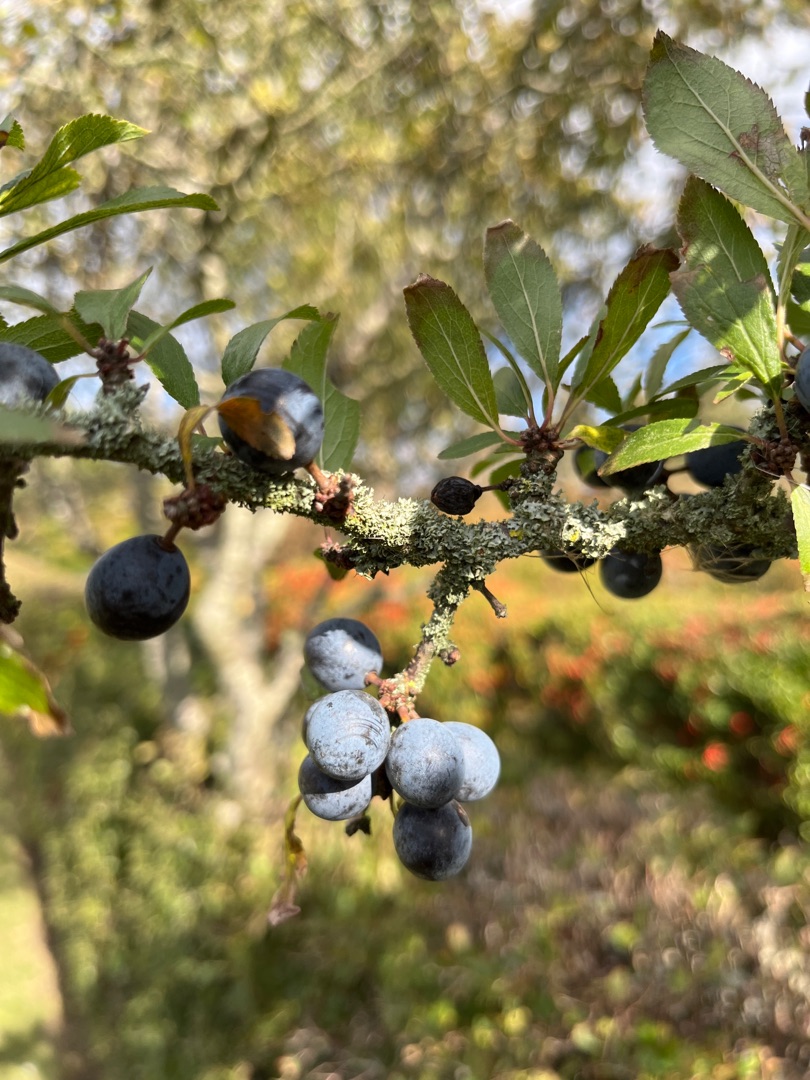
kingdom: Plantae
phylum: Tracheophyta
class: Magnoliopsida
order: Rosales
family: Rosaceae
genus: Prunus
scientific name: Prunus spinosa
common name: Slåen
